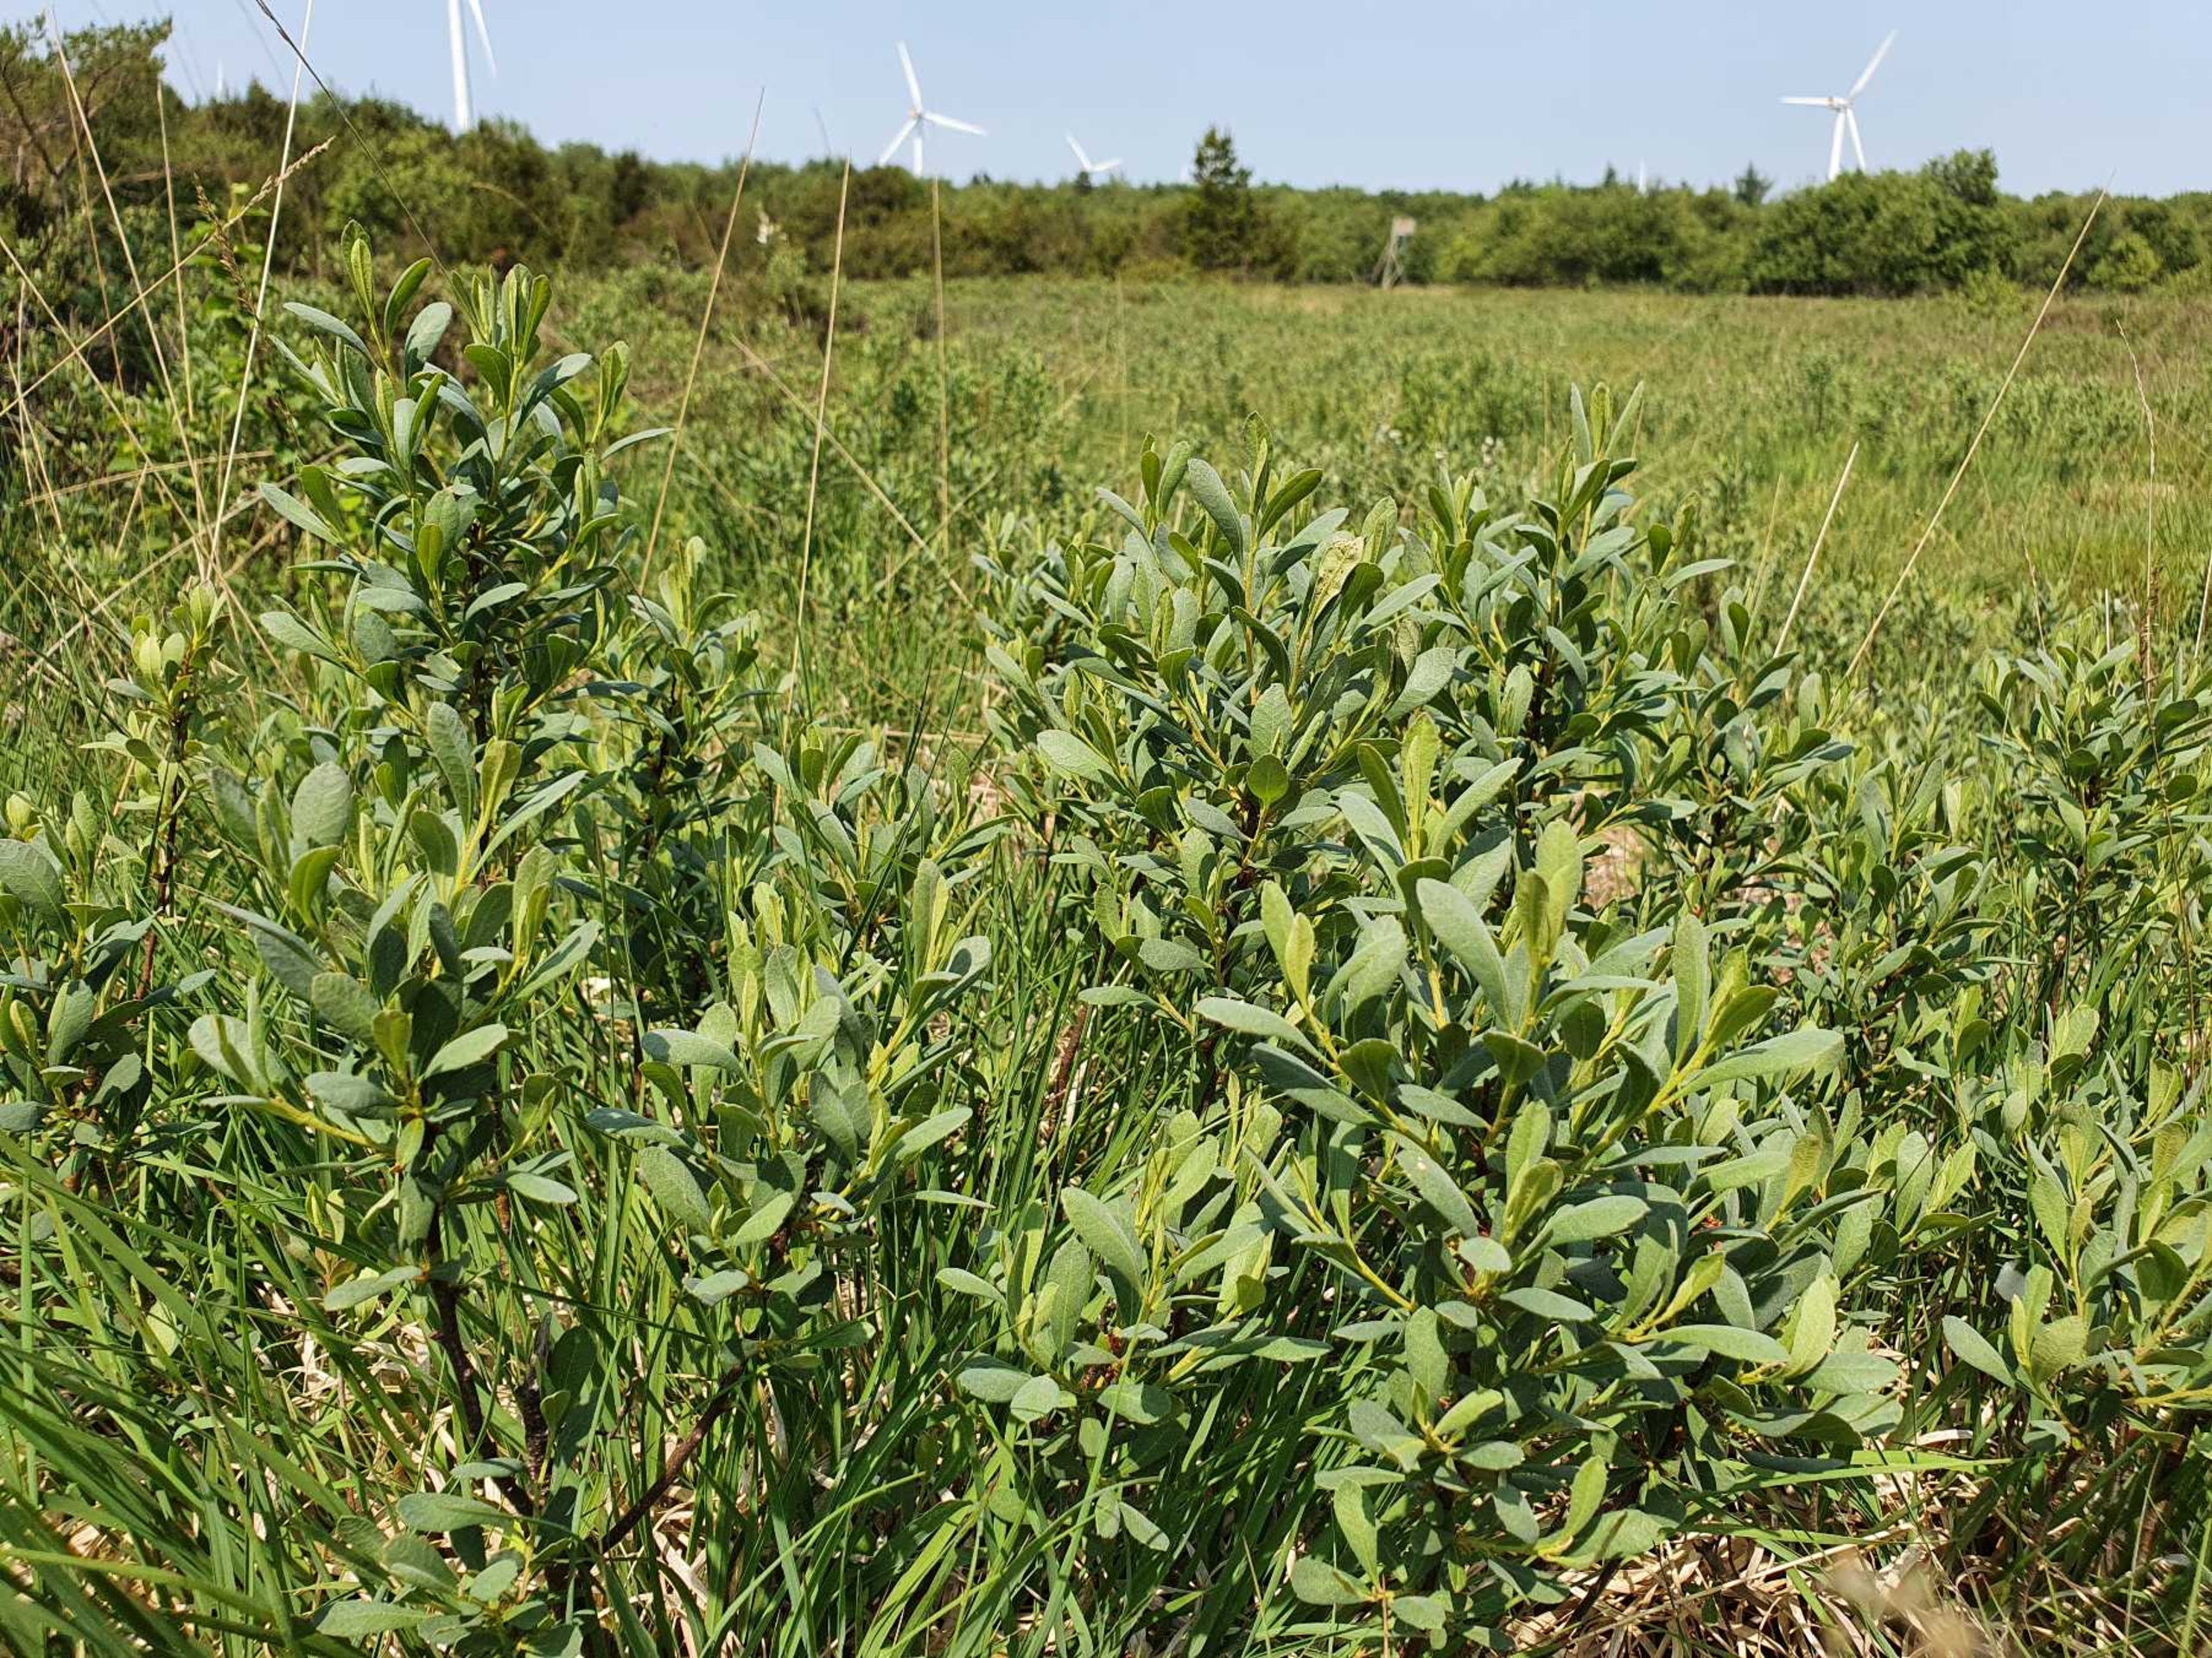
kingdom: Plantae
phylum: Tracheophyta
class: Magnoliopsida
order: Fagales
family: Myricaceae
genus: Myrica
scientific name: Myrica gale
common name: Pors
